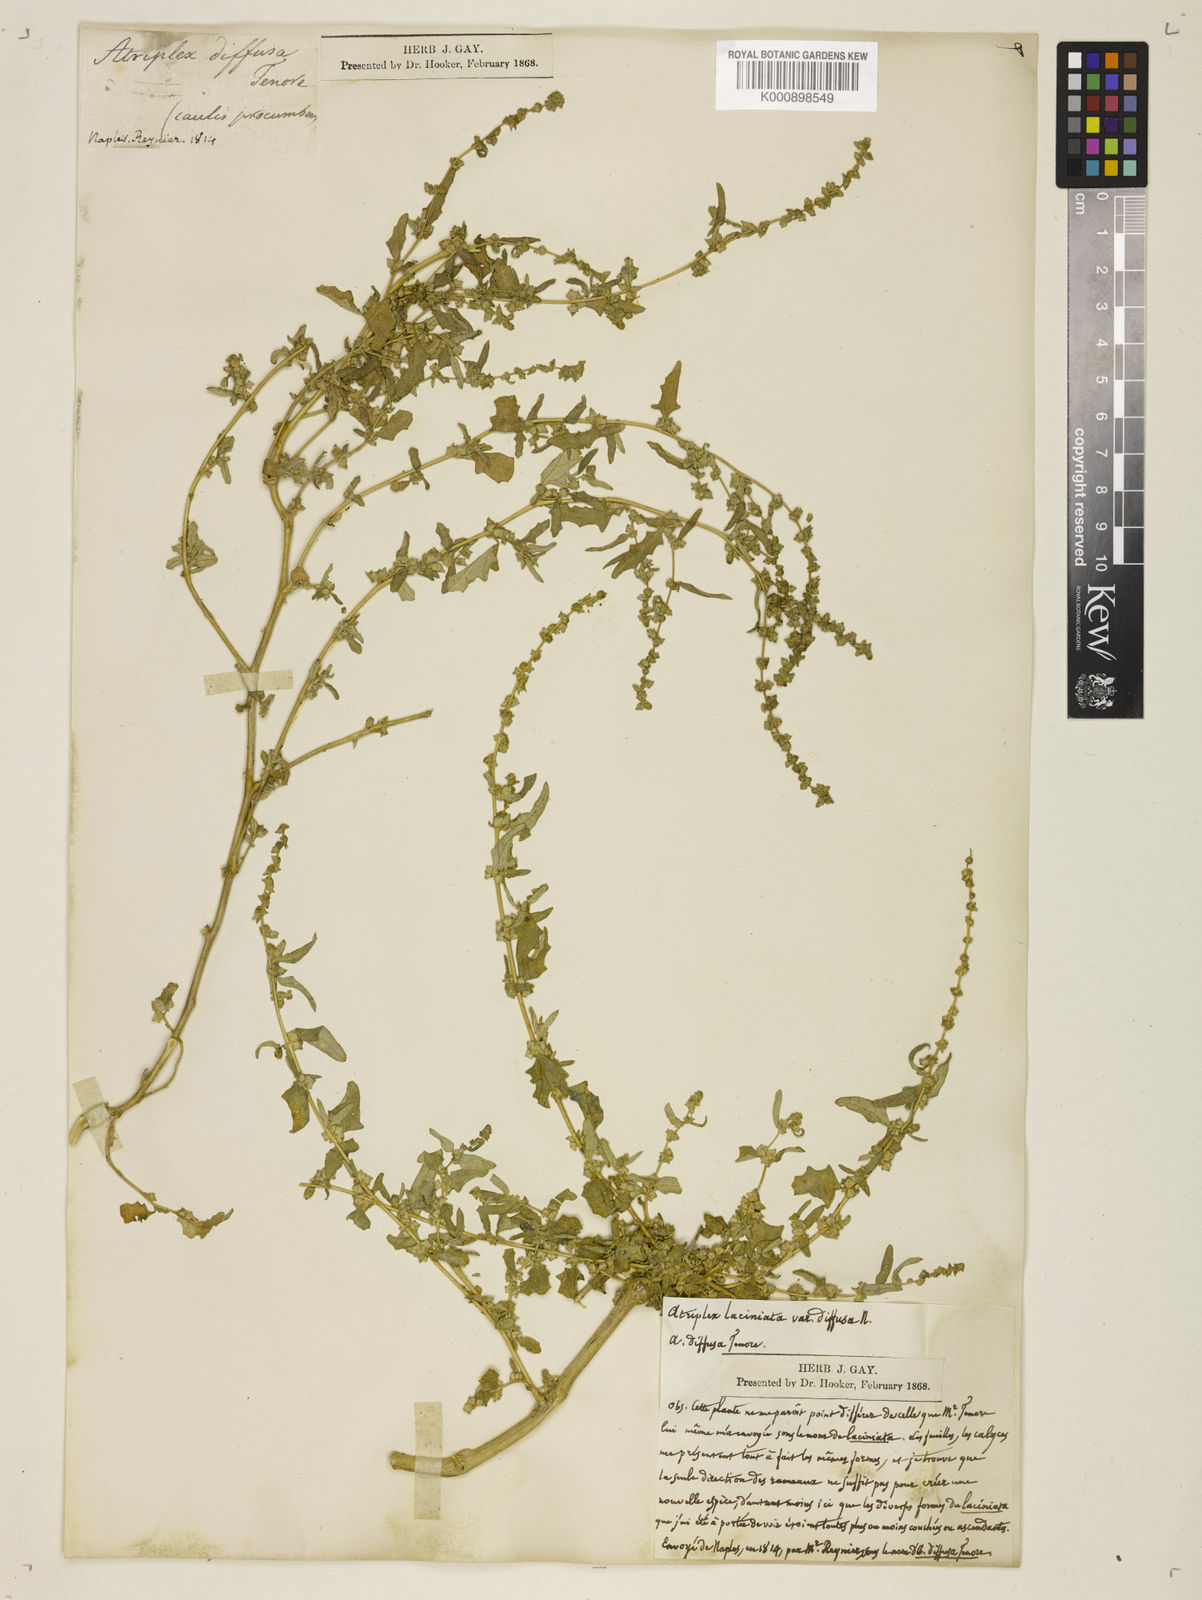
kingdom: Plantae
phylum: Tracheophyta
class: Magnoliopsida
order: Caryophyllales
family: Amaranthaceae
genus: Atriplex
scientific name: Atriplex tatarica
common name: Tatarian orache
